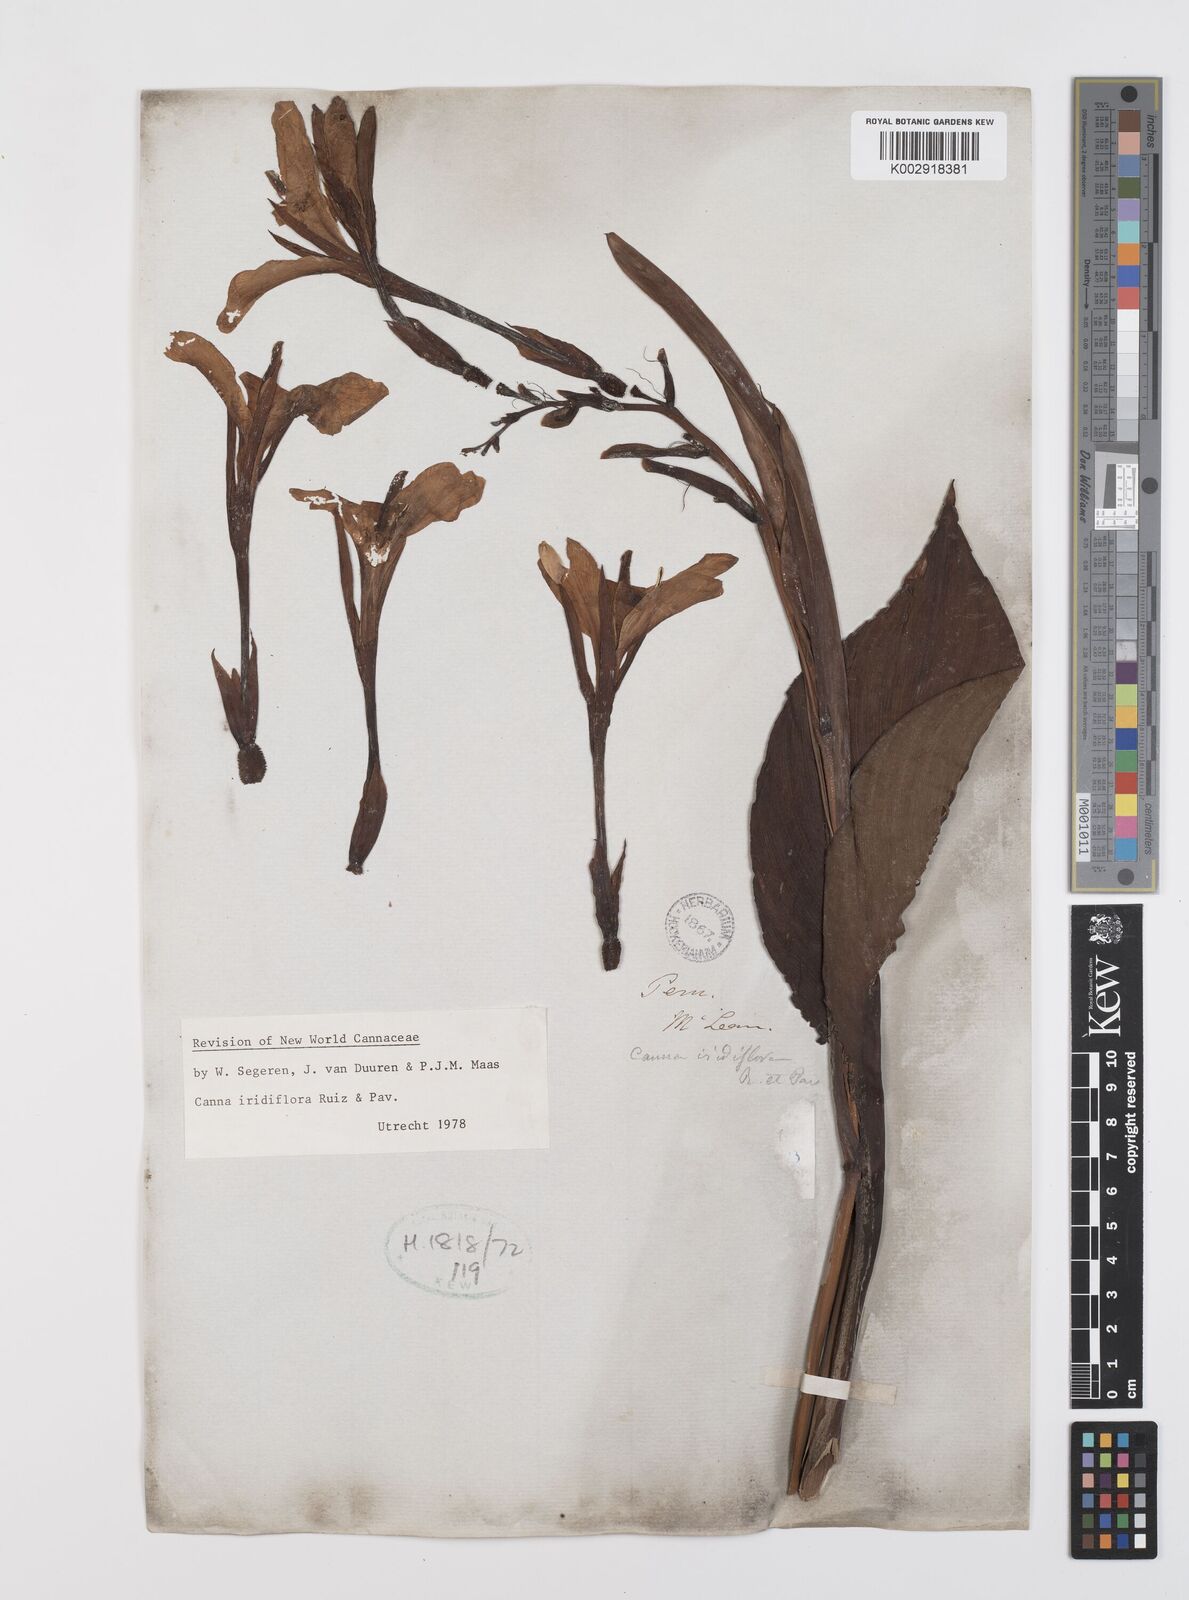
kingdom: Plantae
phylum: Tracheophyta
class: Liliopsida
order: Zingiberales
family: Cannaceae
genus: Canna
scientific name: Canna iridiflora
